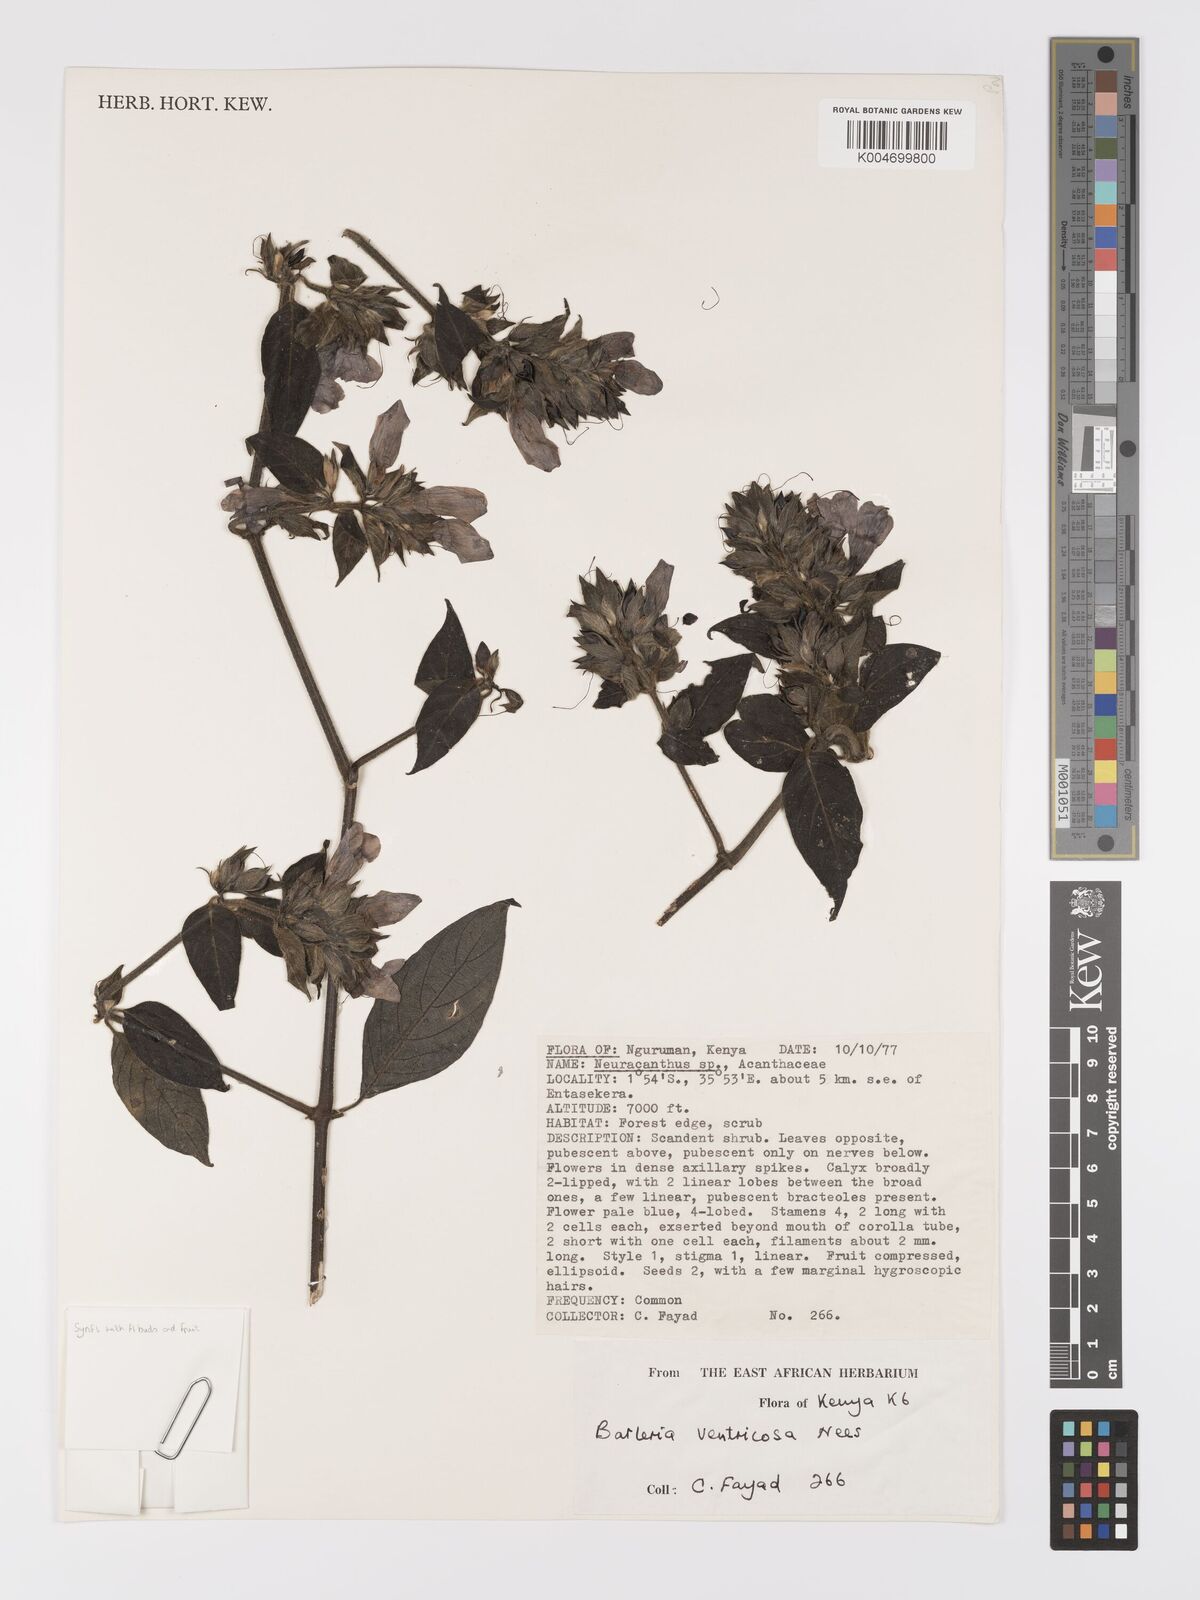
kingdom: Plantae
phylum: Tracheophyta
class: Magnoliopsida
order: Lamiales
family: Acanthaceae
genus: Barleria
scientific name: Barleria ventricosa
